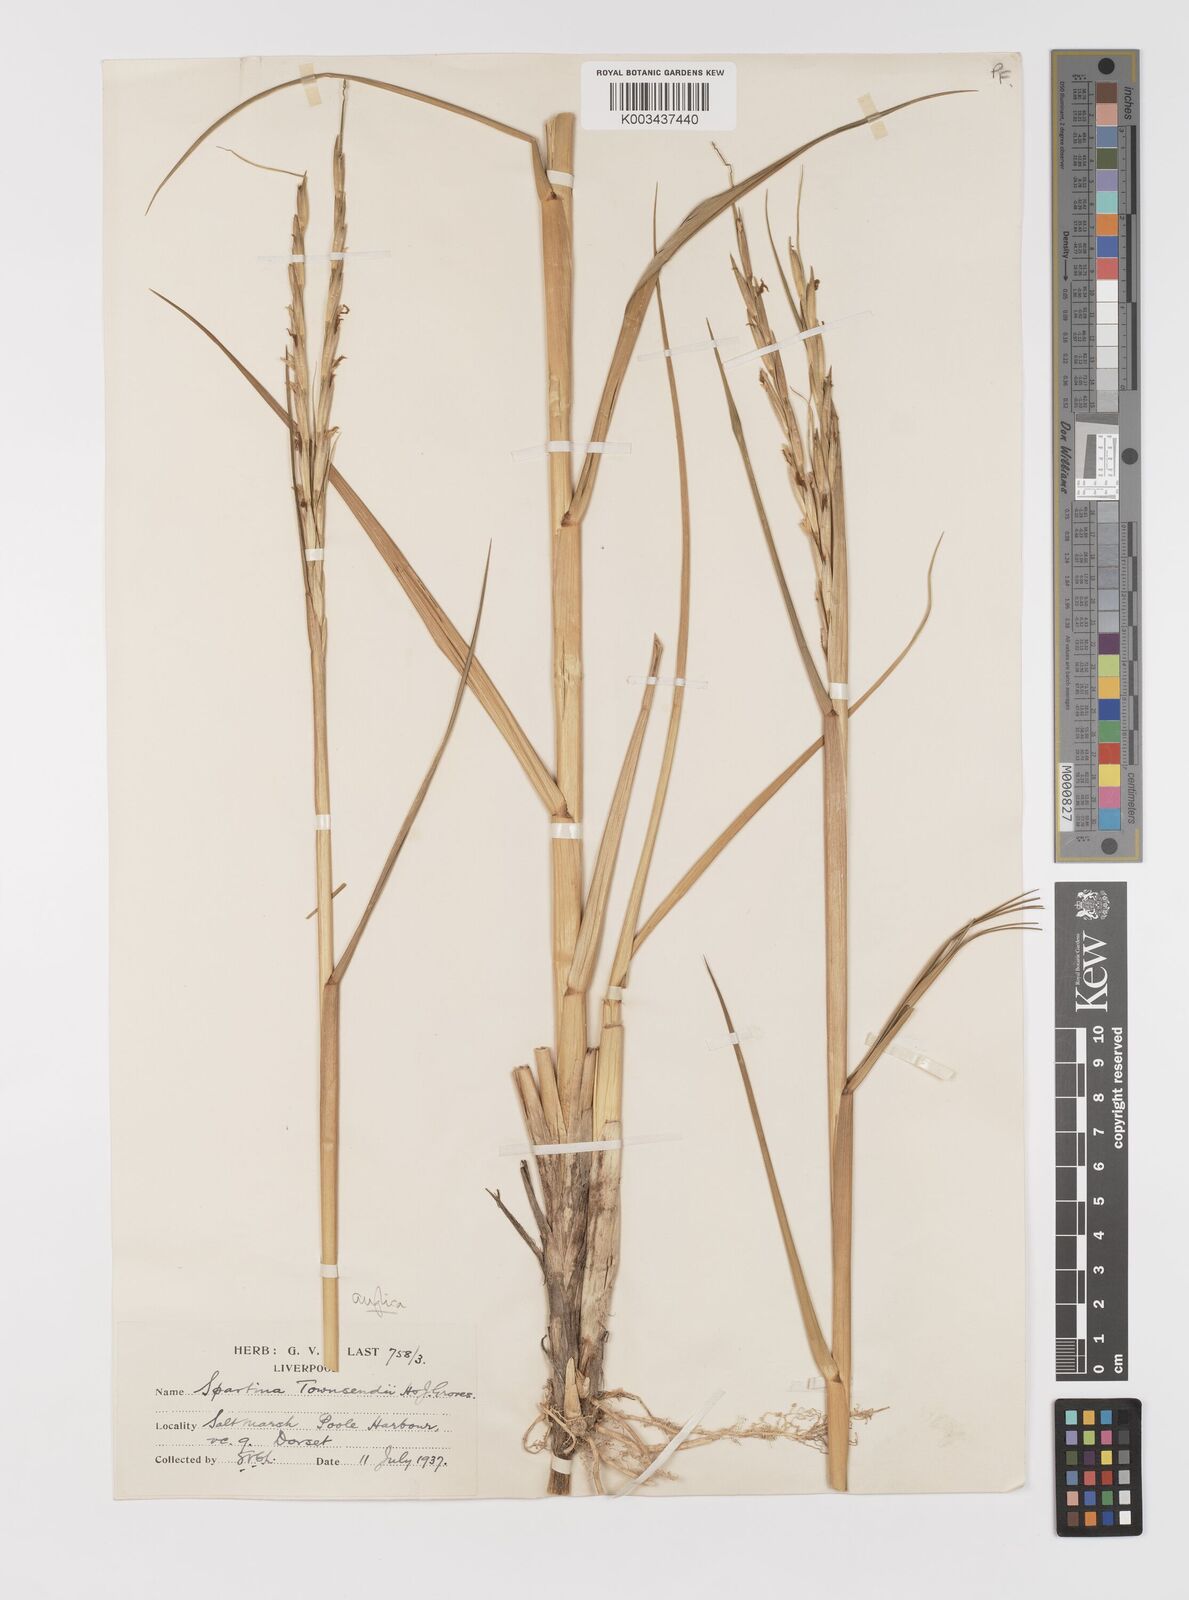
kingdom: Plantae
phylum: Tracheophyta
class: Liliopsida
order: Poales
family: Poaceae
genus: Sporobolus
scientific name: Sporobolus anglicus
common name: English cordgrass
